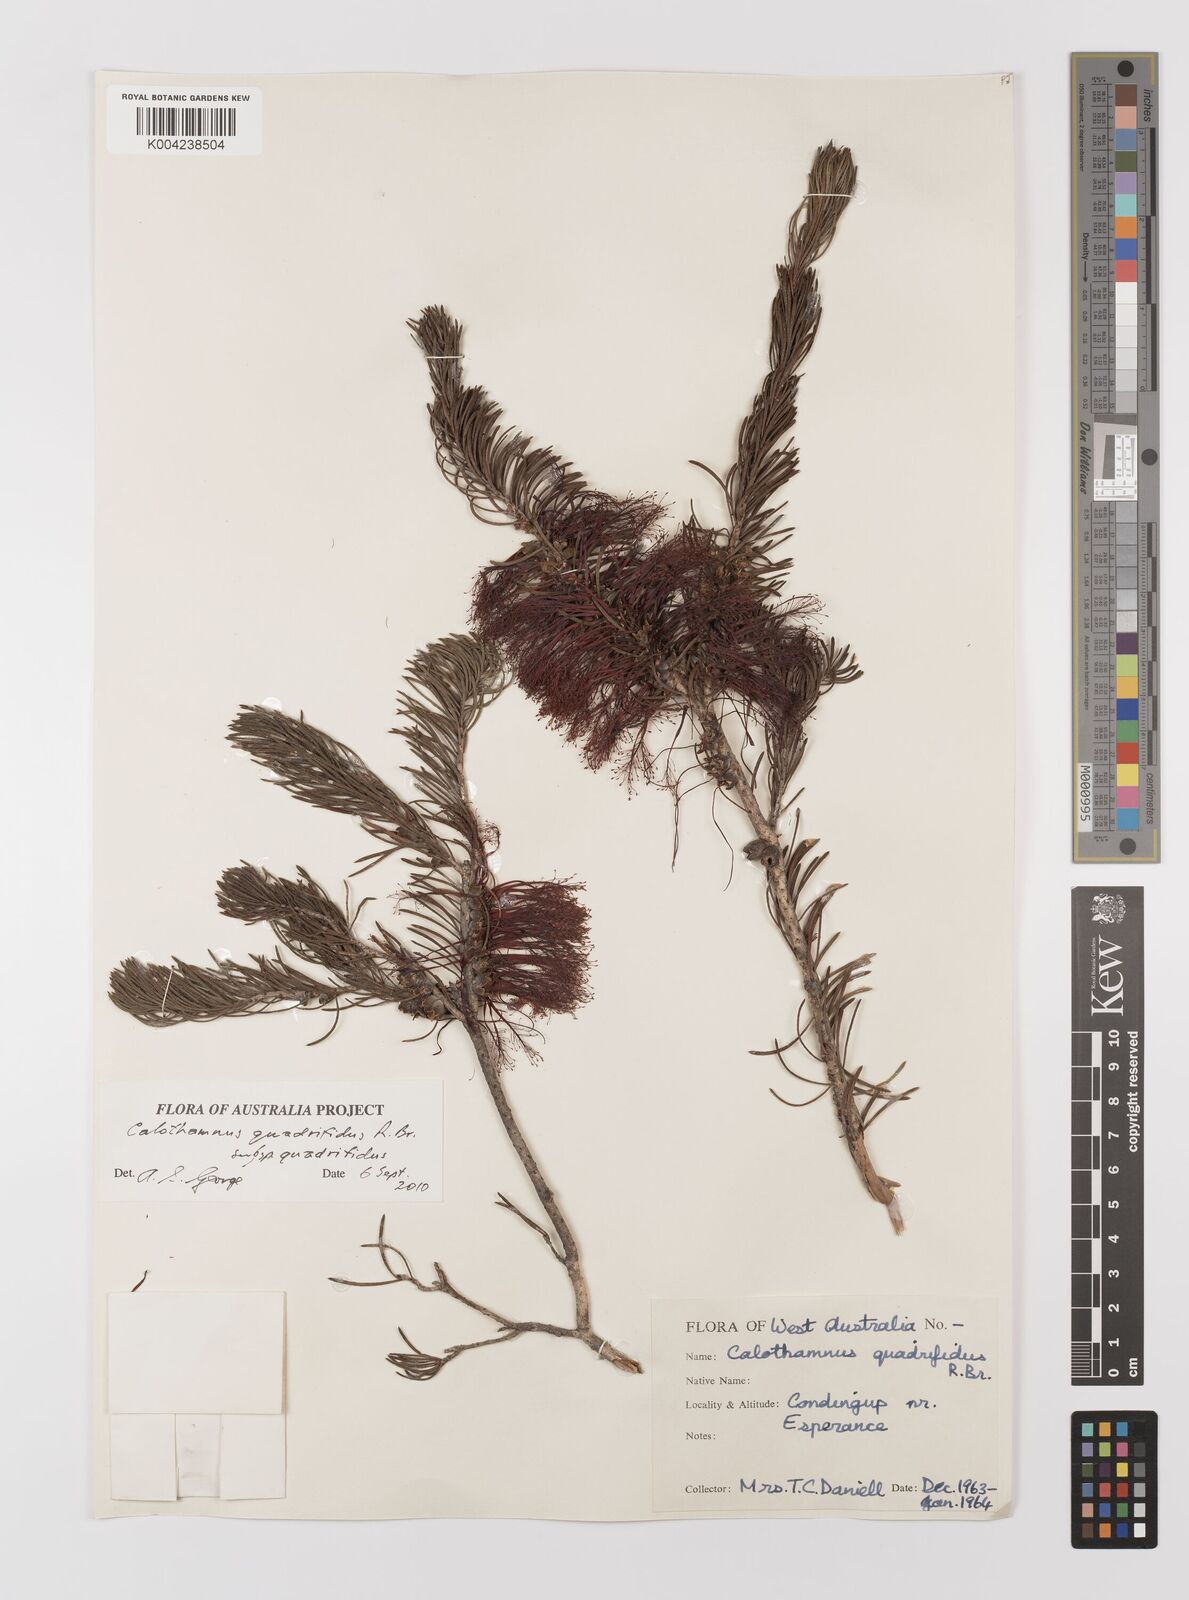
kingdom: Plantae
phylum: Tracheophyta
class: Magnoliopsida
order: Myrtales
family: Myrtaceae
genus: Melaleuca
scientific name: Melaleuca quadrifida
